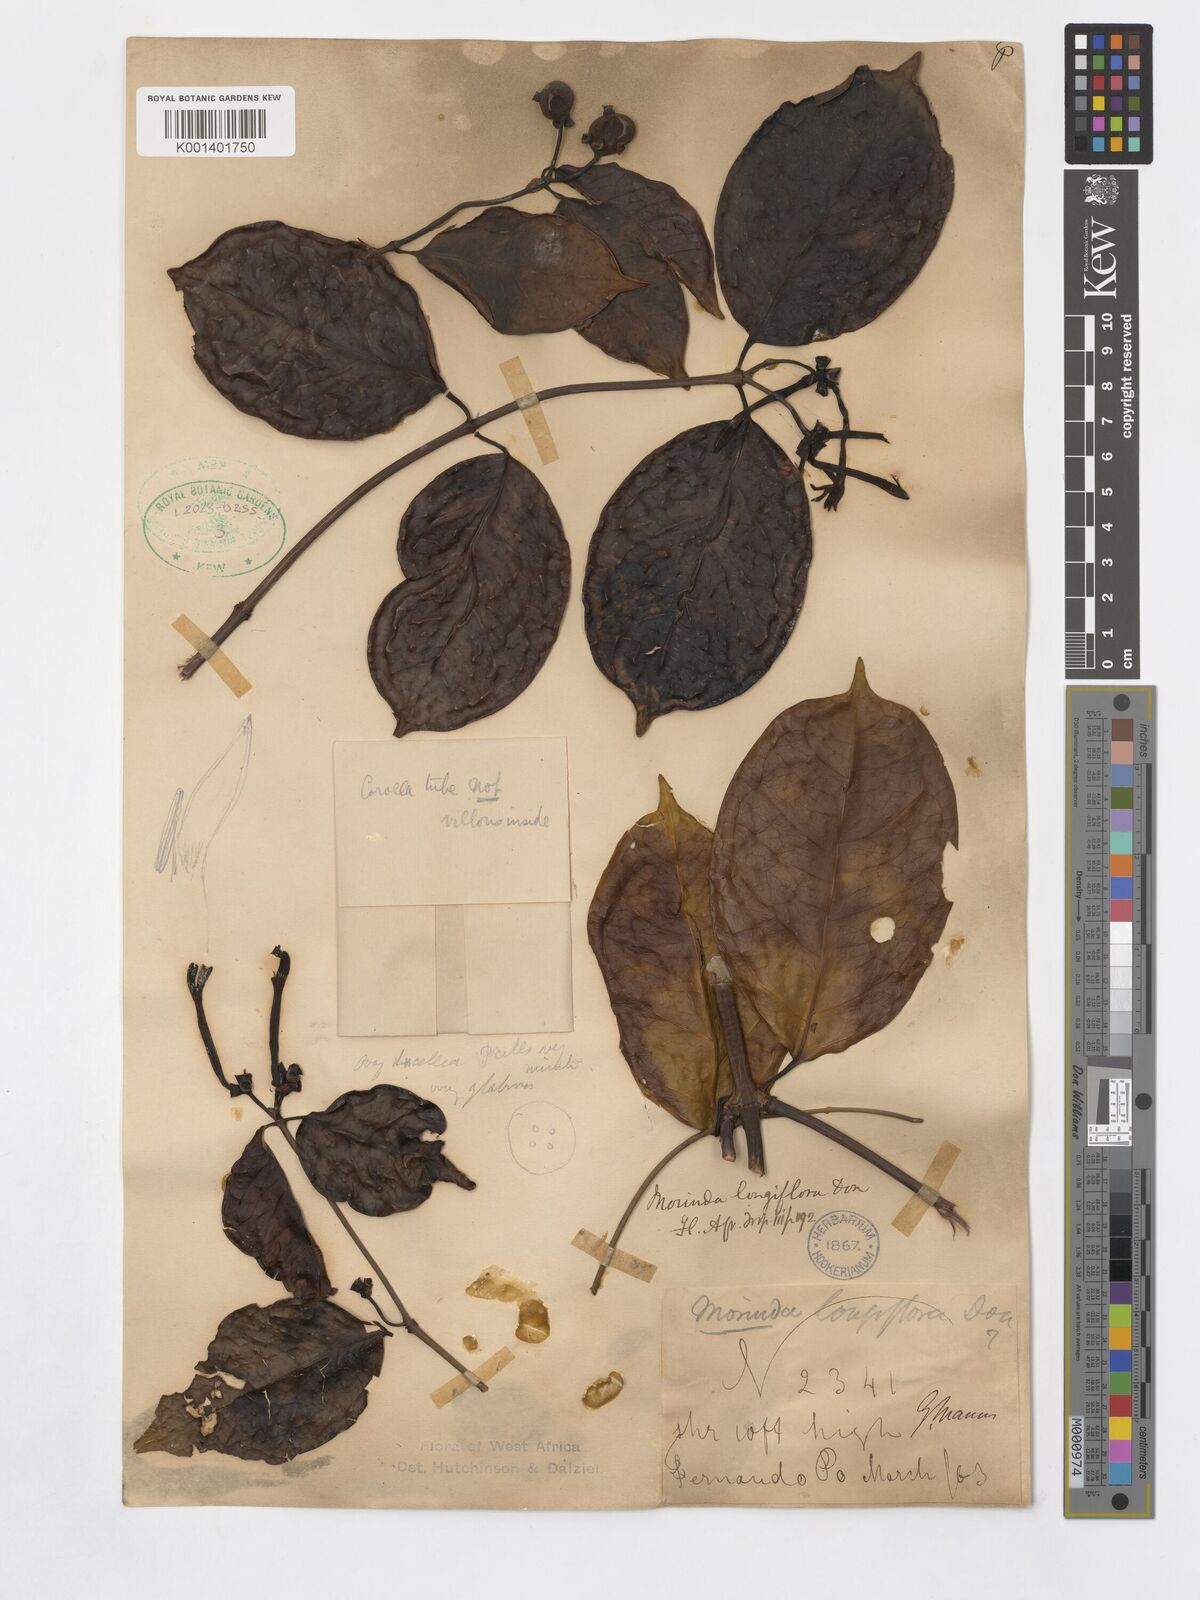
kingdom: Plantae
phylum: Tracheophyta
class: Magnoliopsida
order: Gentianales
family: Rubiaceae
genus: Morinda
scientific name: Morinda longiflora
